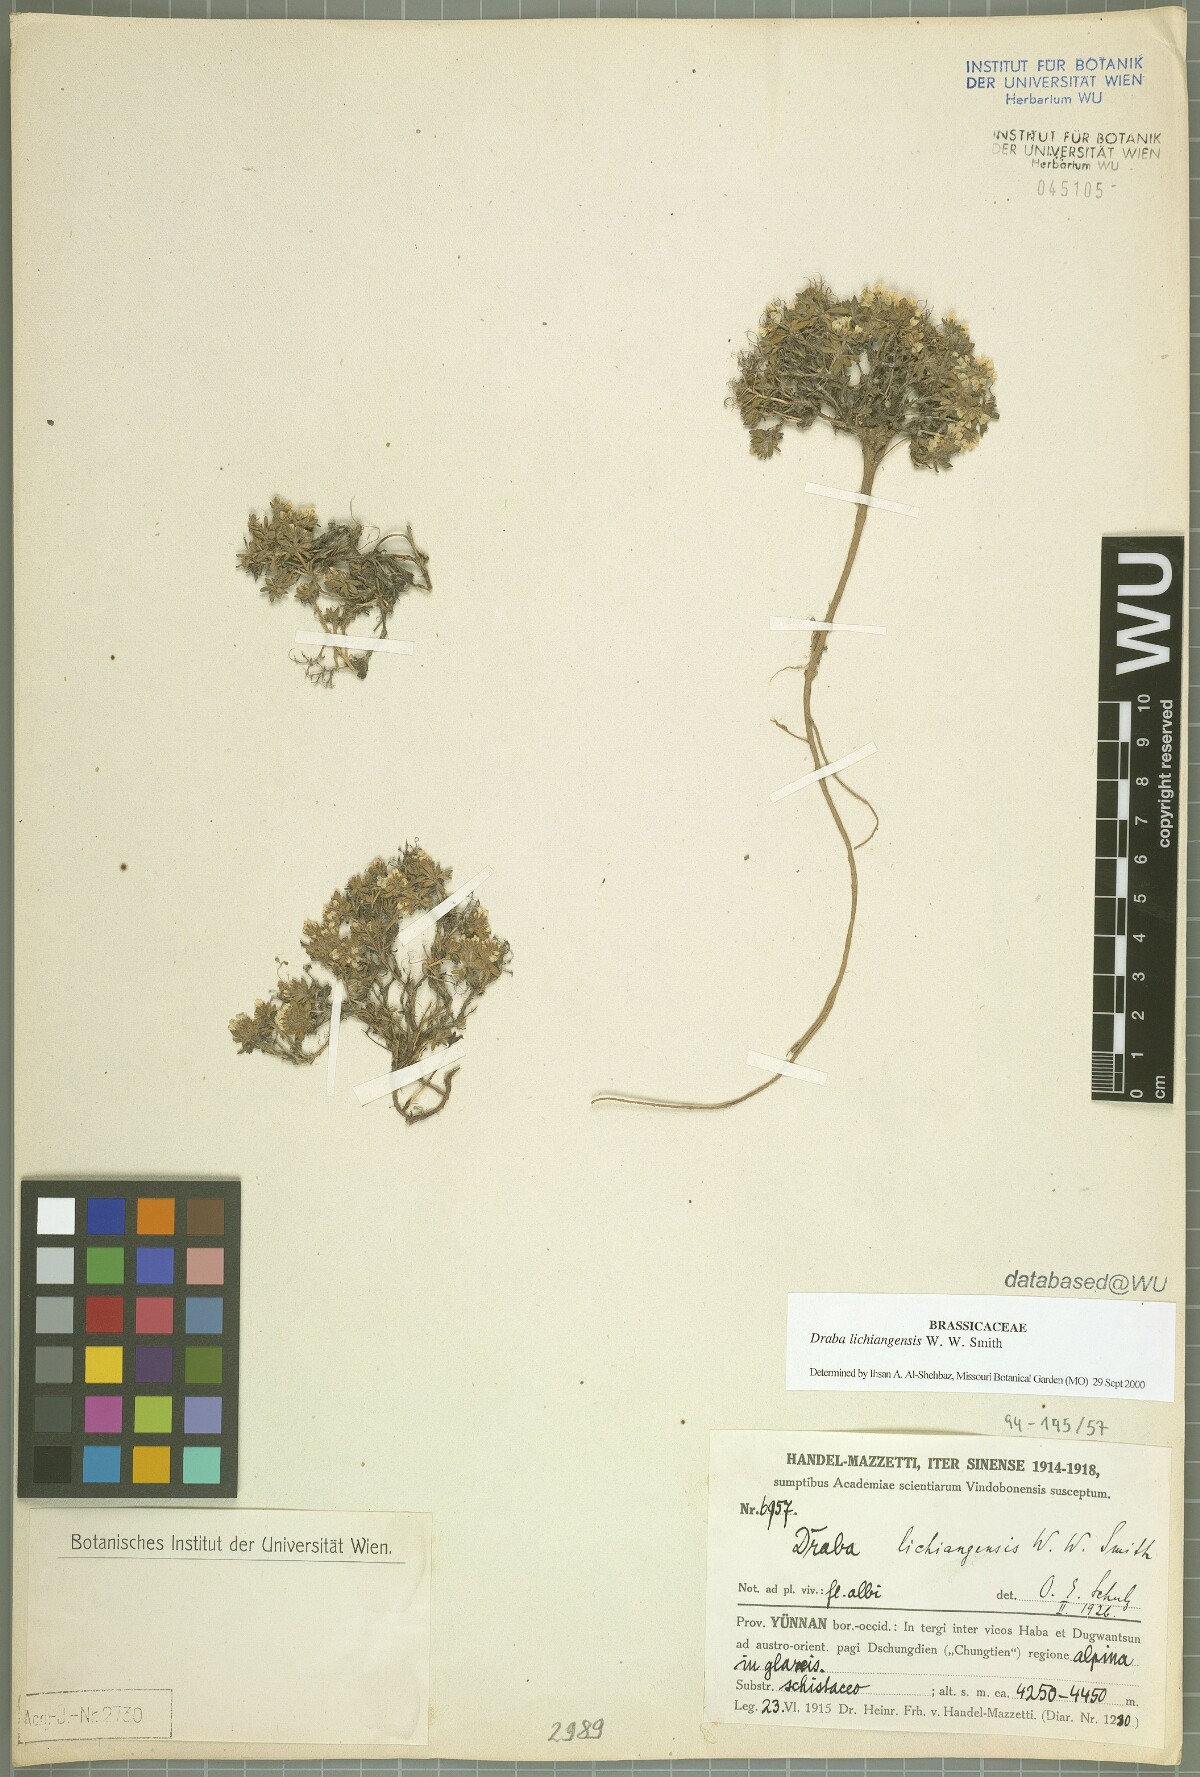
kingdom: Plantae
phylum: Tracheophyta
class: Magnoliopsida
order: Brassicales
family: Brassicaceae
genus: Draba
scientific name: Draba lichiangensis
